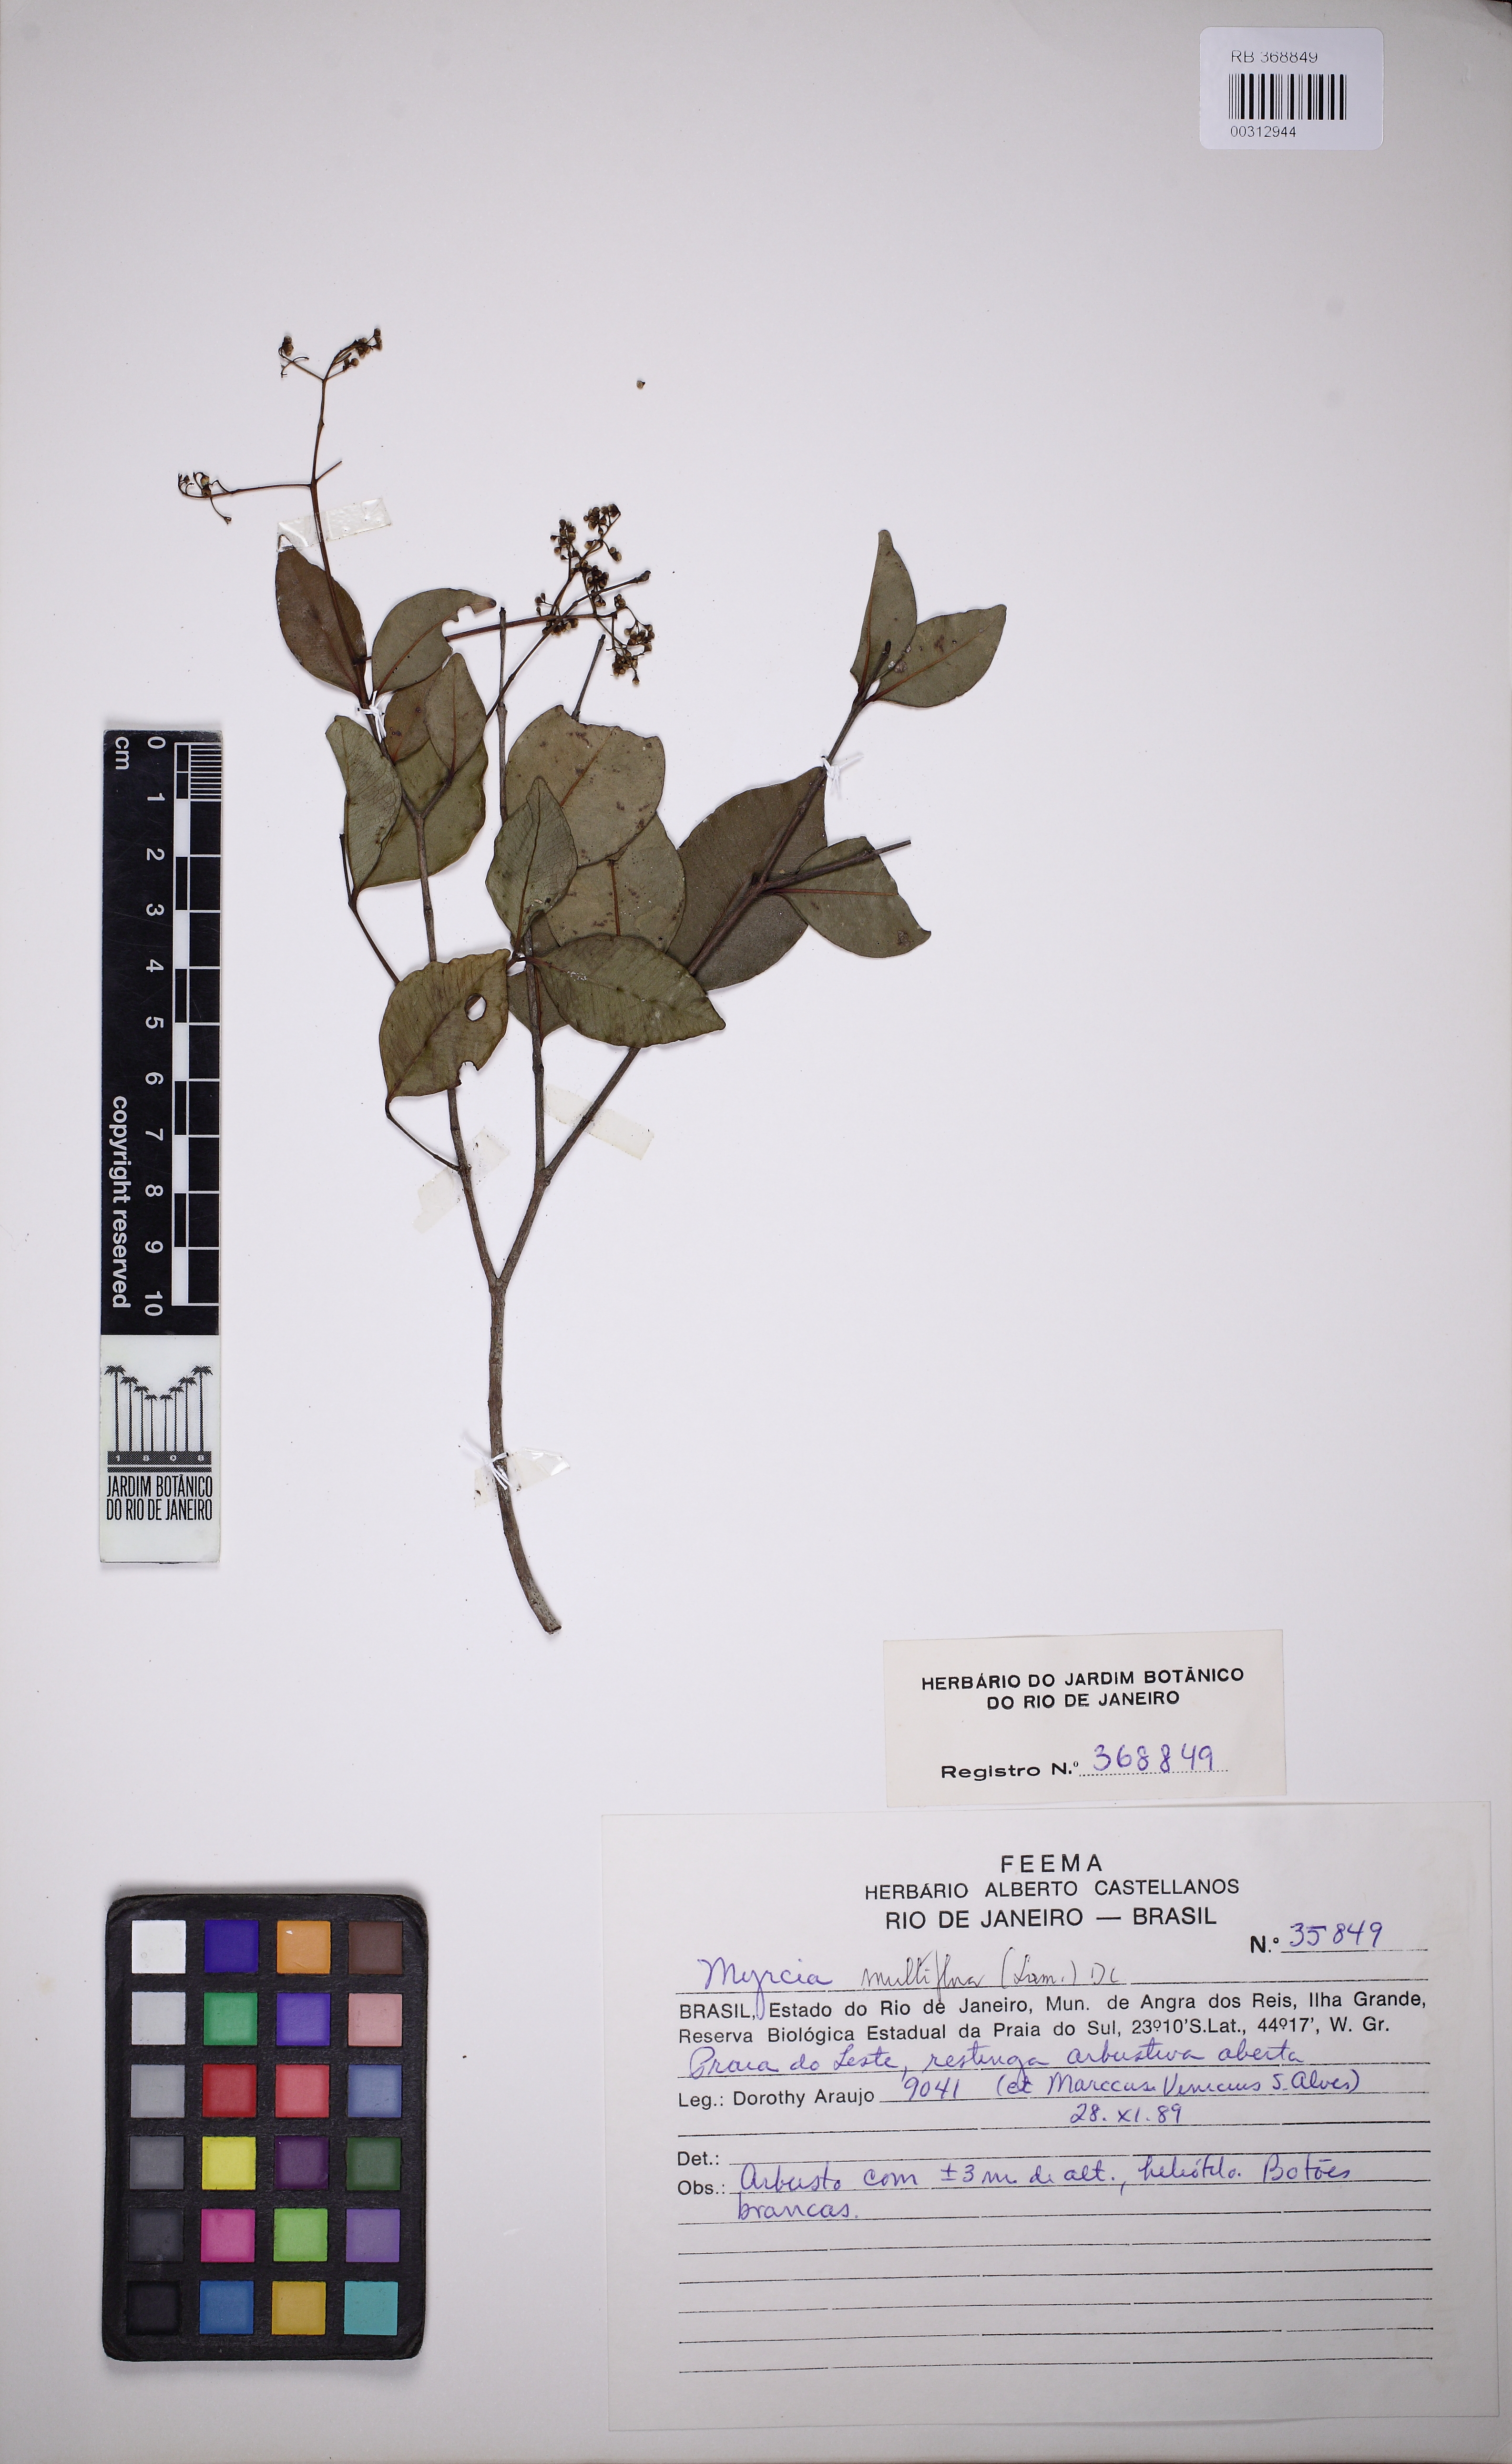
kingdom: Plantae
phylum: Tracheophyta
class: Magnoliopsida
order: Myrtales
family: Myrtaceae
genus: Myrcia
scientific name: Myrcia multiflora
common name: Pedra hume
